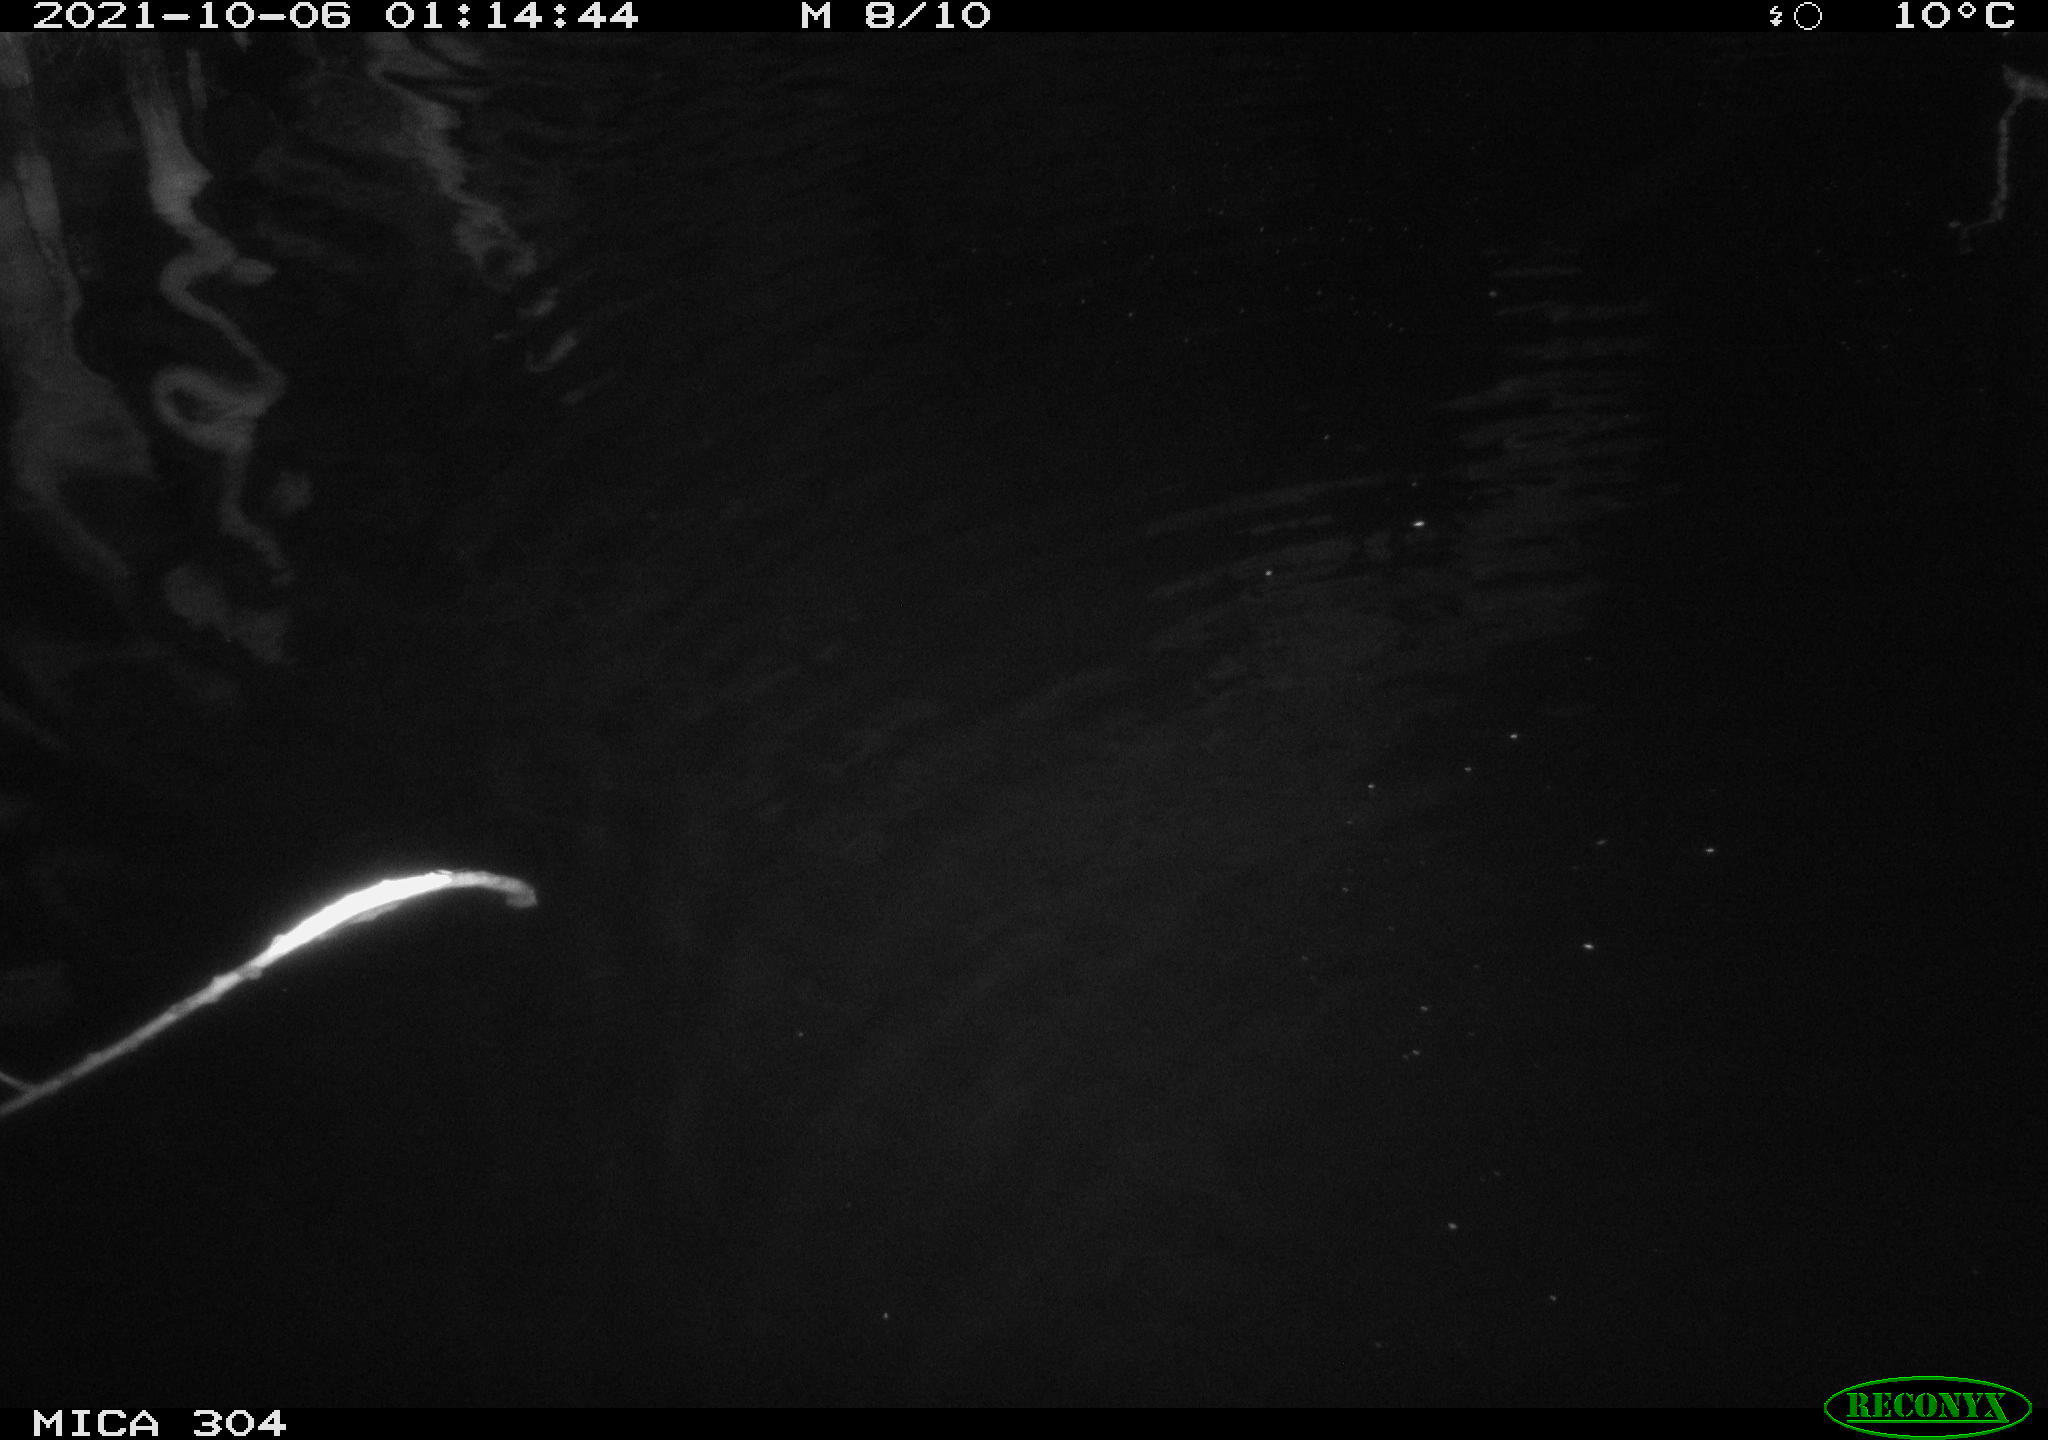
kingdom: Animalia
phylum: Chordata
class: Mammalia
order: Rodentia
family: Cricetidae
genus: Ondatra
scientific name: Ondatra zibethicus
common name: Muskrat
